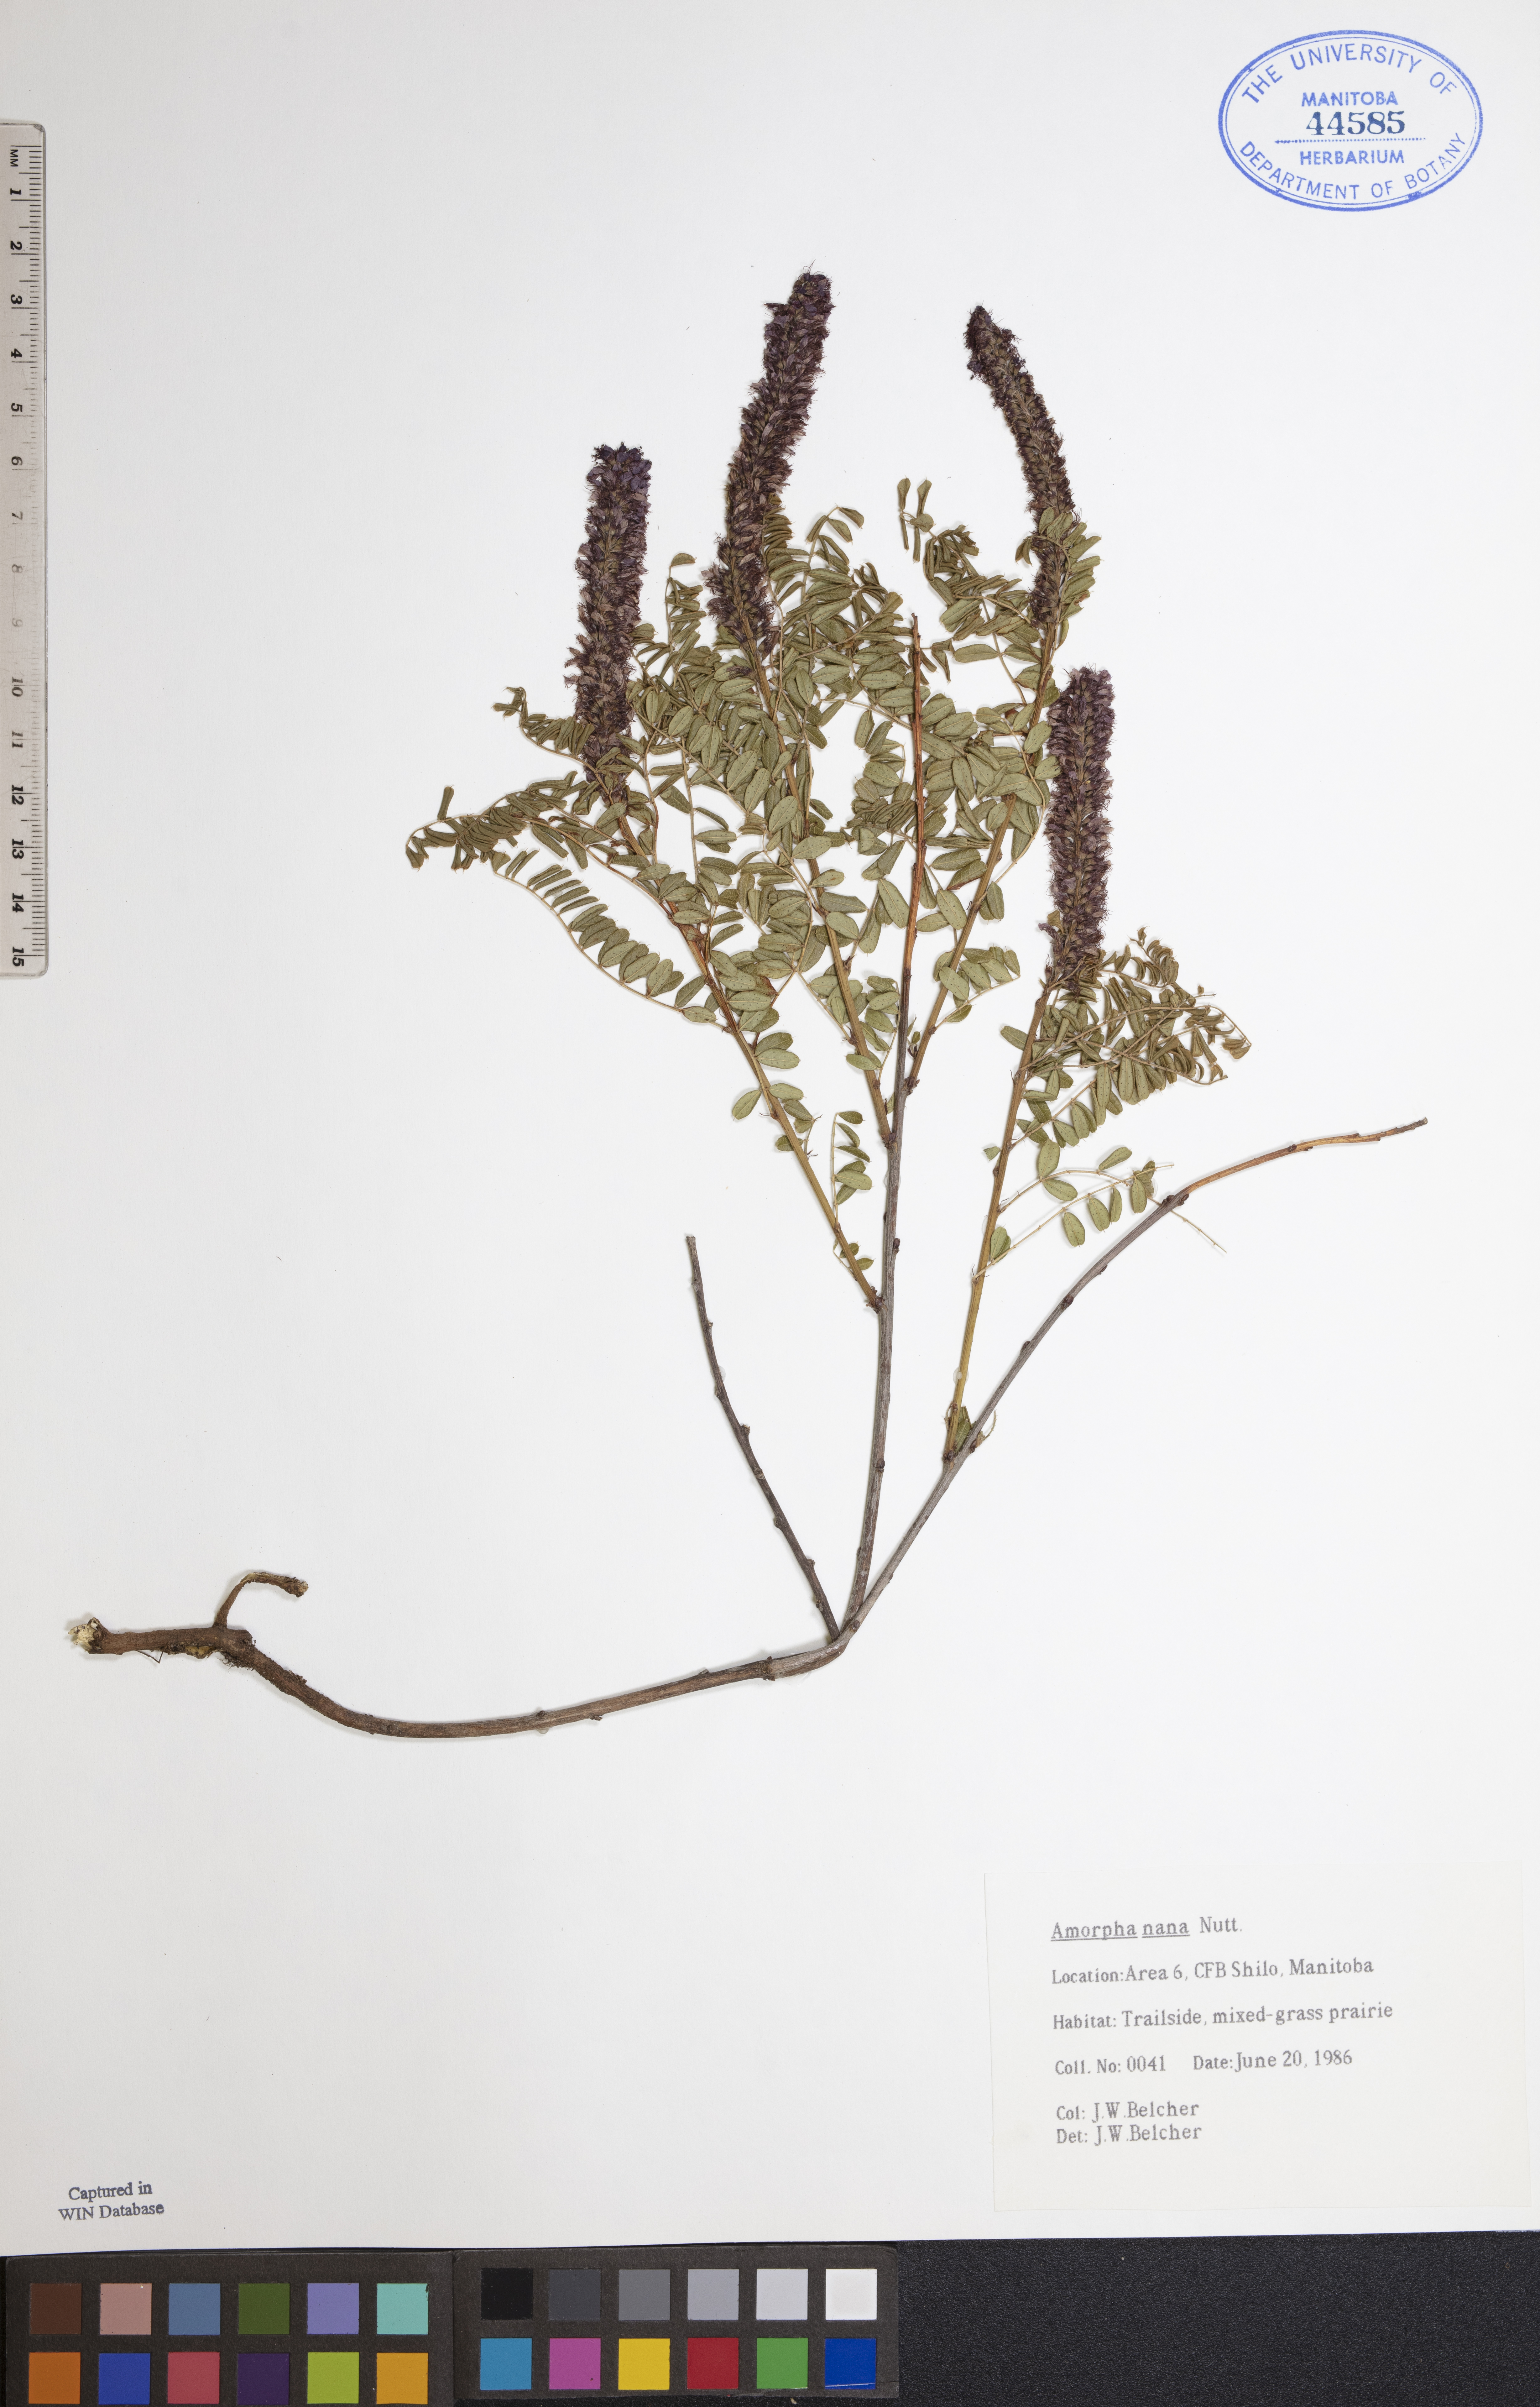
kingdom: Plantae
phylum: Tracheophyta
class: Magnoliopsida
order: Fabales
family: Fabaceae
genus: Amorpha
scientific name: Amorpha nana
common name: Fragrant false indigo
